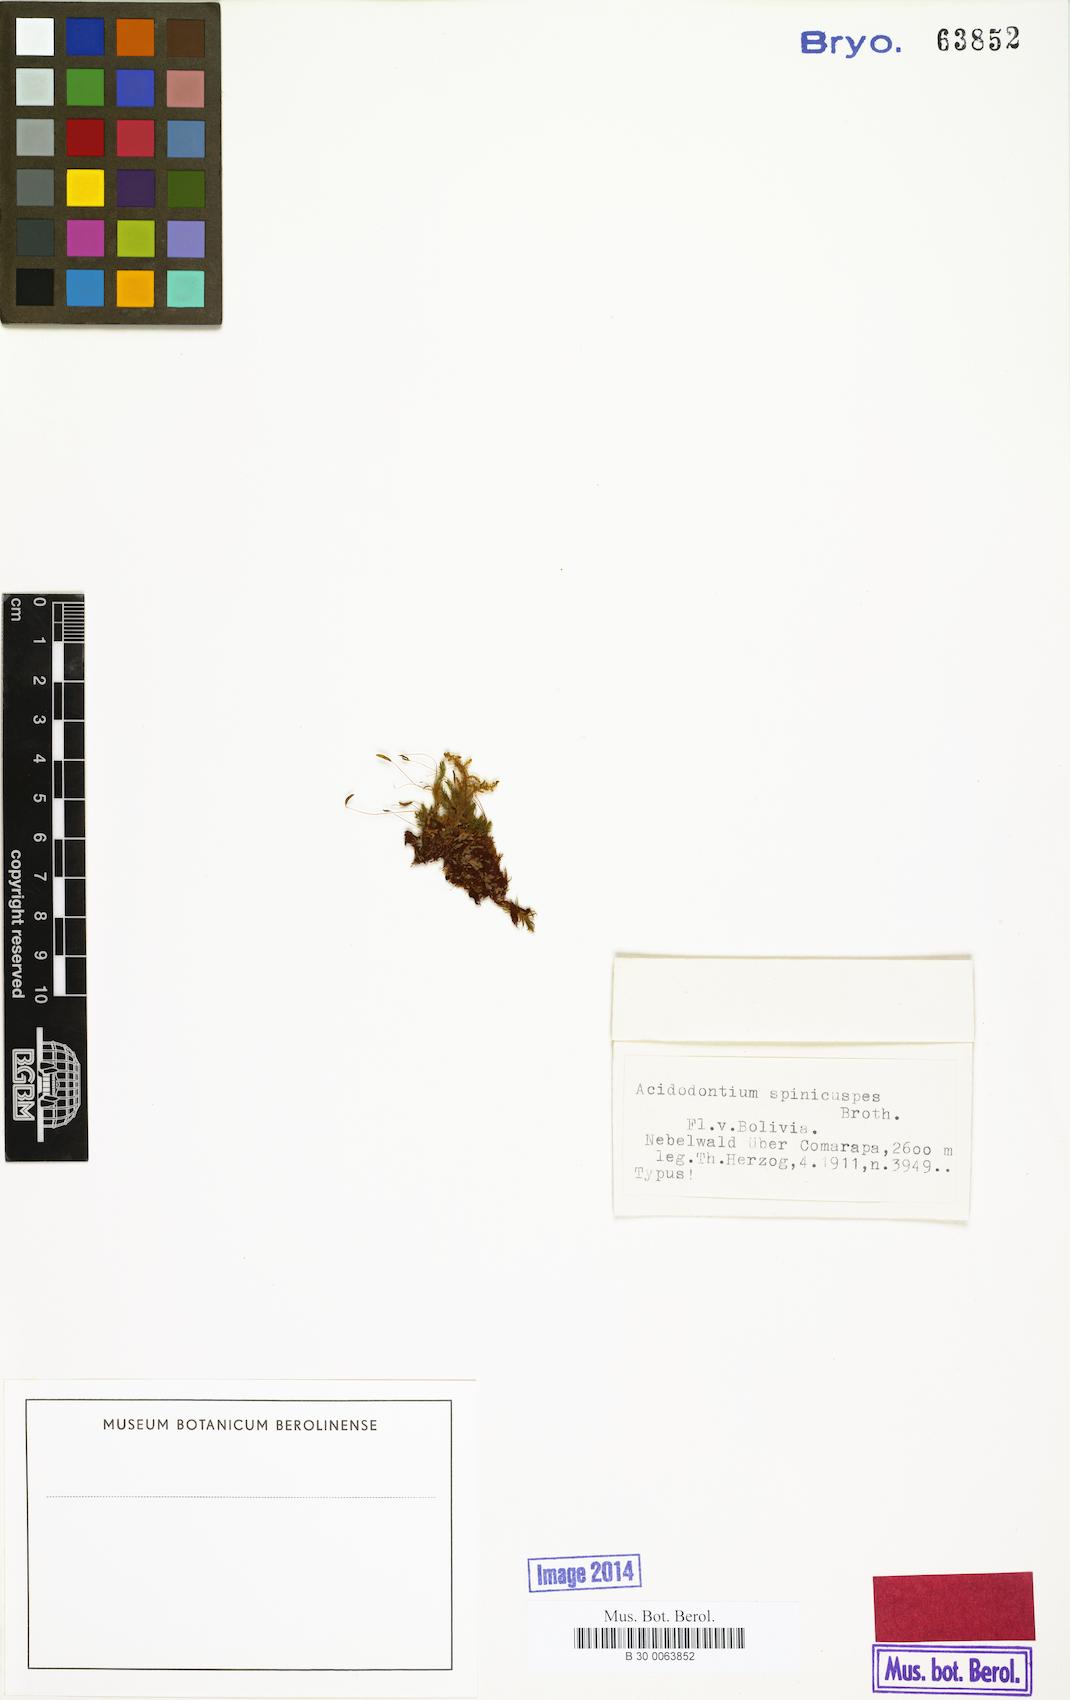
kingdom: Plantae
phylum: Bryophyta
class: Bryopsida
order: Bryales
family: Bryaceae
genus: Acidodontium
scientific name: Acidodontium pallidum
